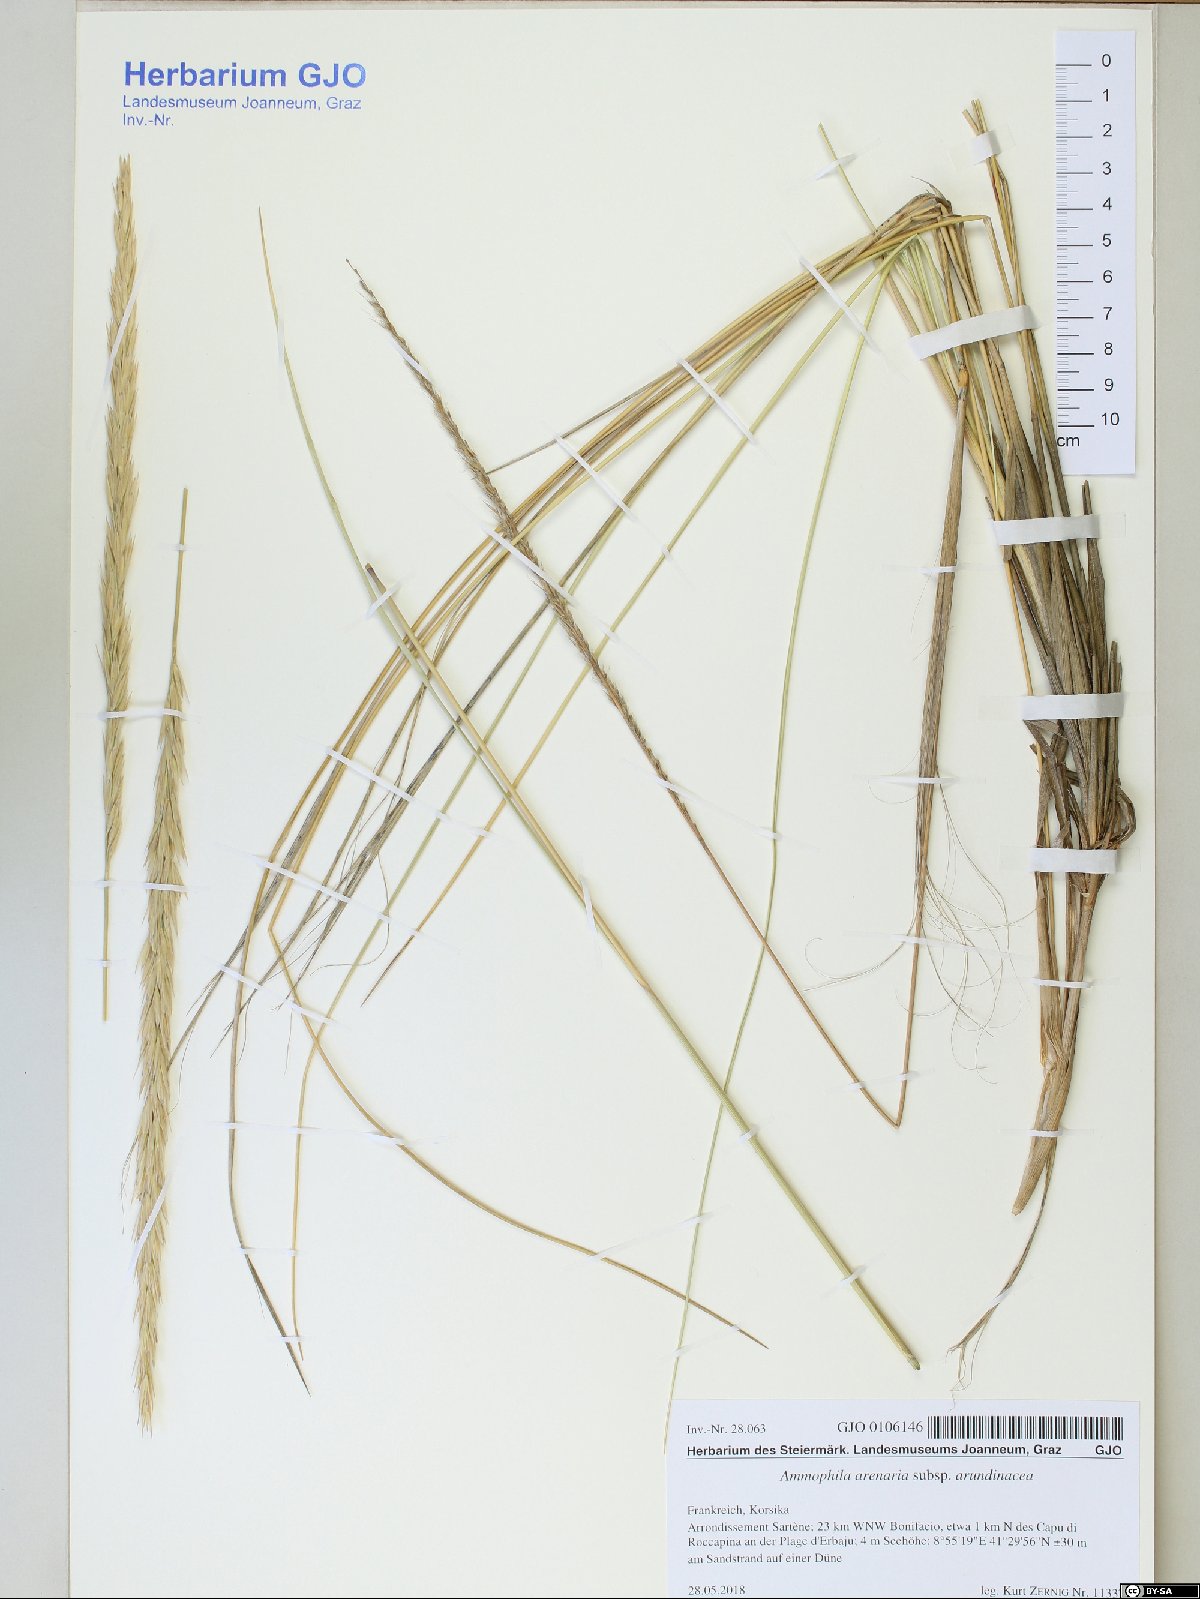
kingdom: Plantae
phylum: Tracheophyta
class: Liliopsida
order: Poales
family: Poaceae
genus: Calamagrostis
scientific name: Calamagrostis arenaria
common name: European beachgrass
